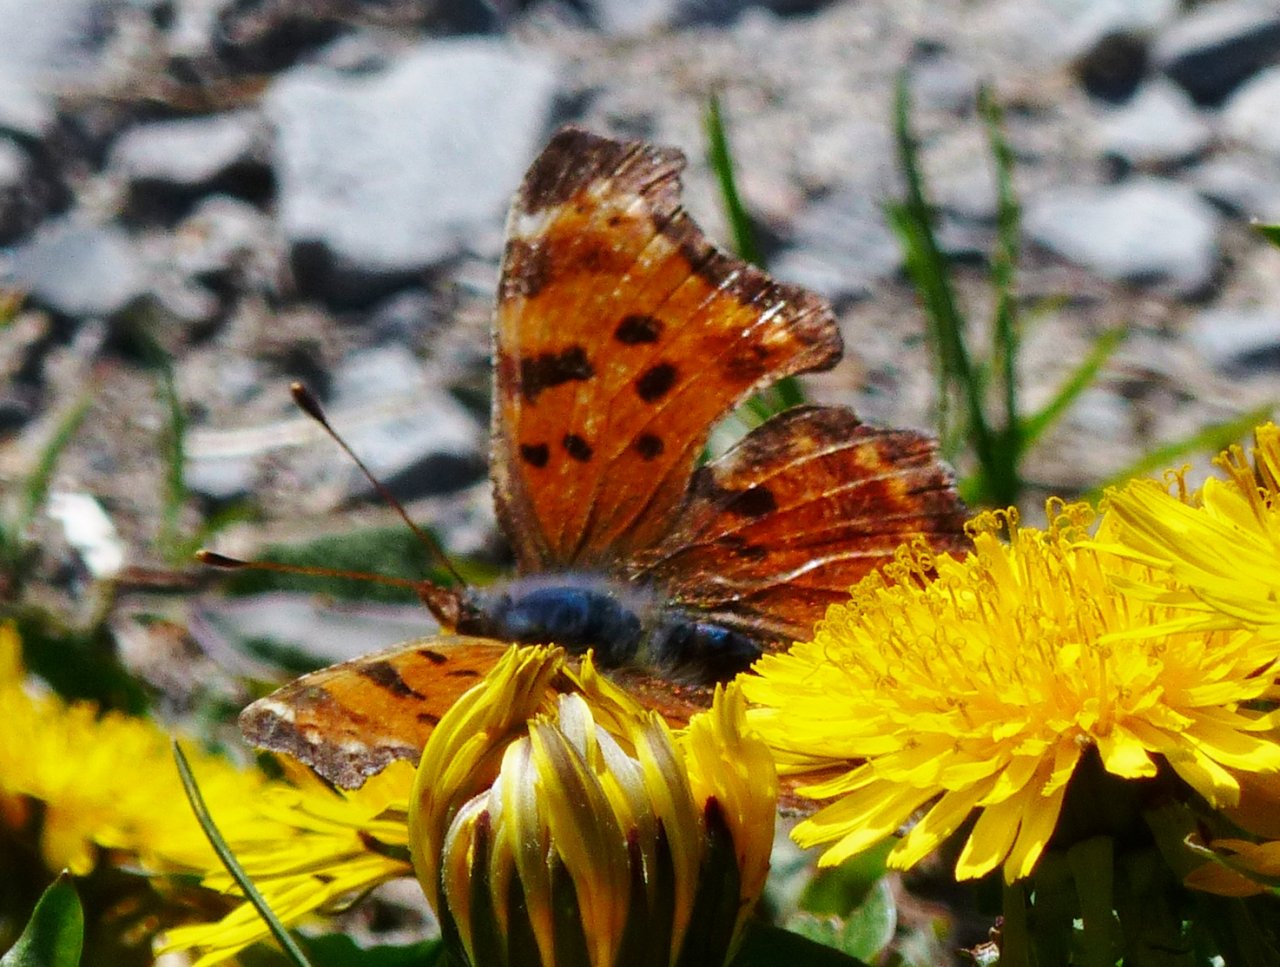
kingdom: Animalia
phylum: Arthropoda
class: Insecta
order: Lepidoptera
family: Nymphalidae
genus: Polygonia
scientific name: Polygonia
